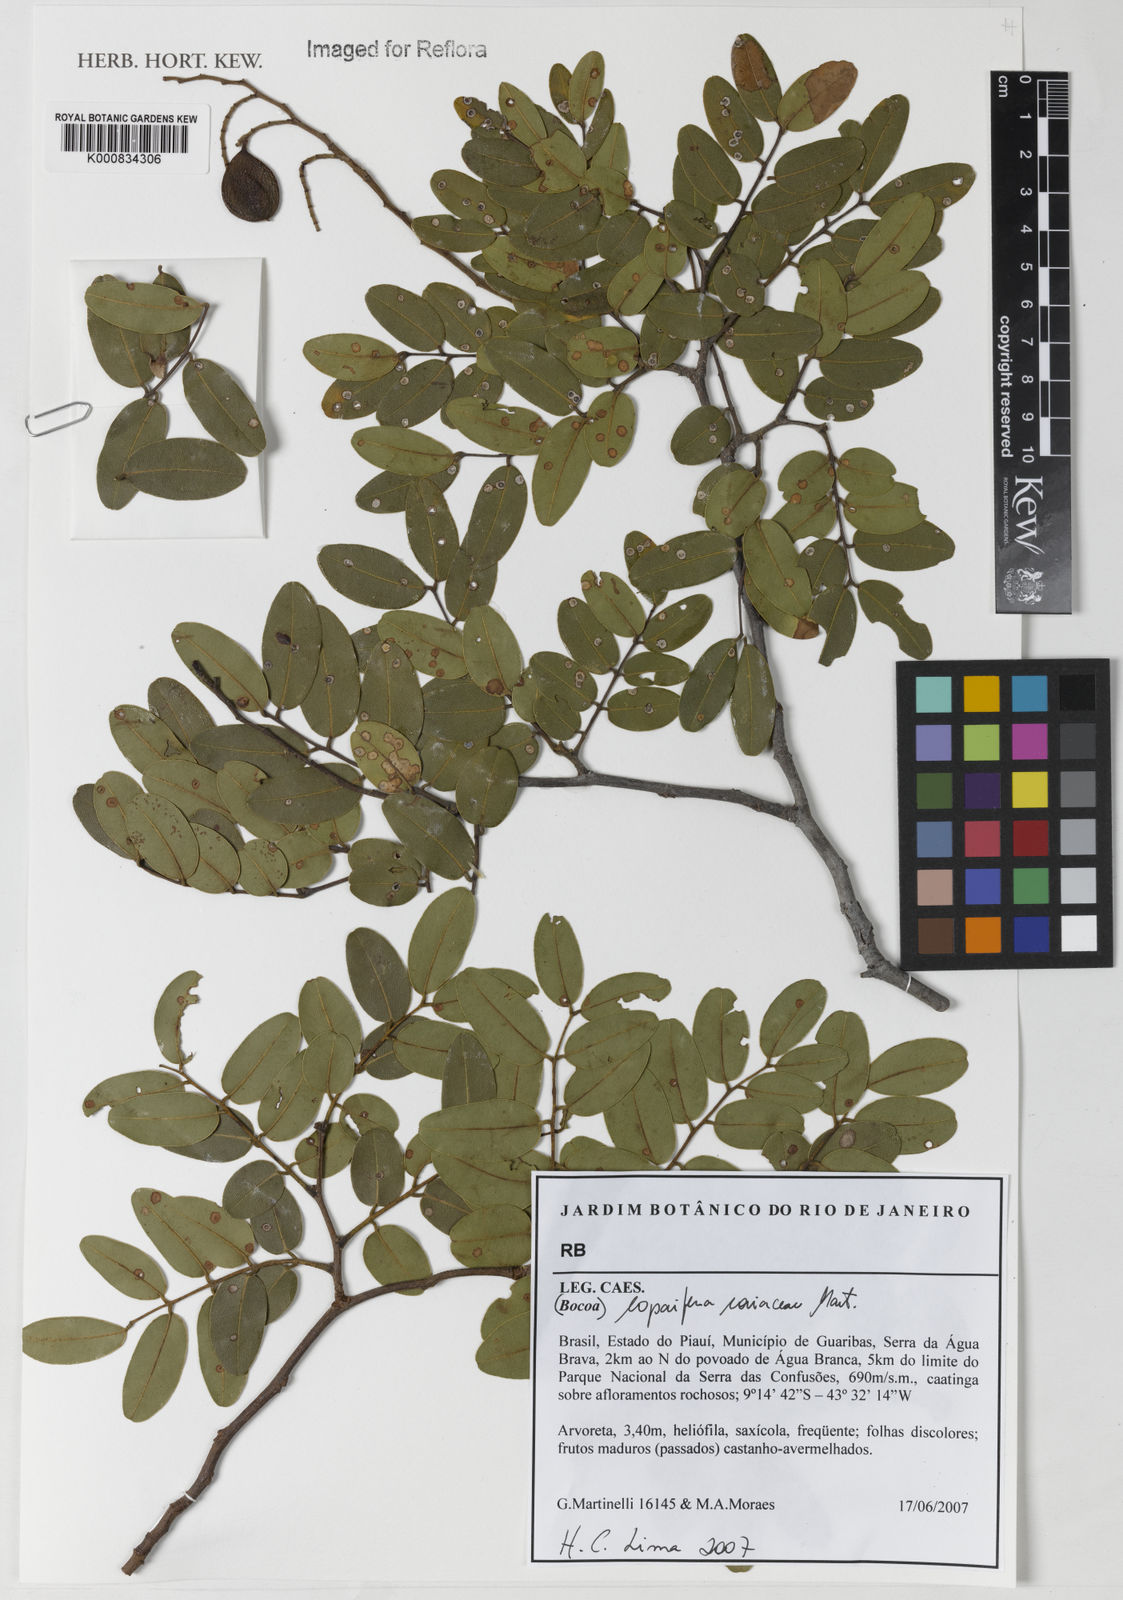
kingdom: Plantae
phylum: Tracheophyta
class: Magnoliopsida
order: Fabales
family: Fabaceae
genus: Copaifera
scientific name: Copaifera coriacea
